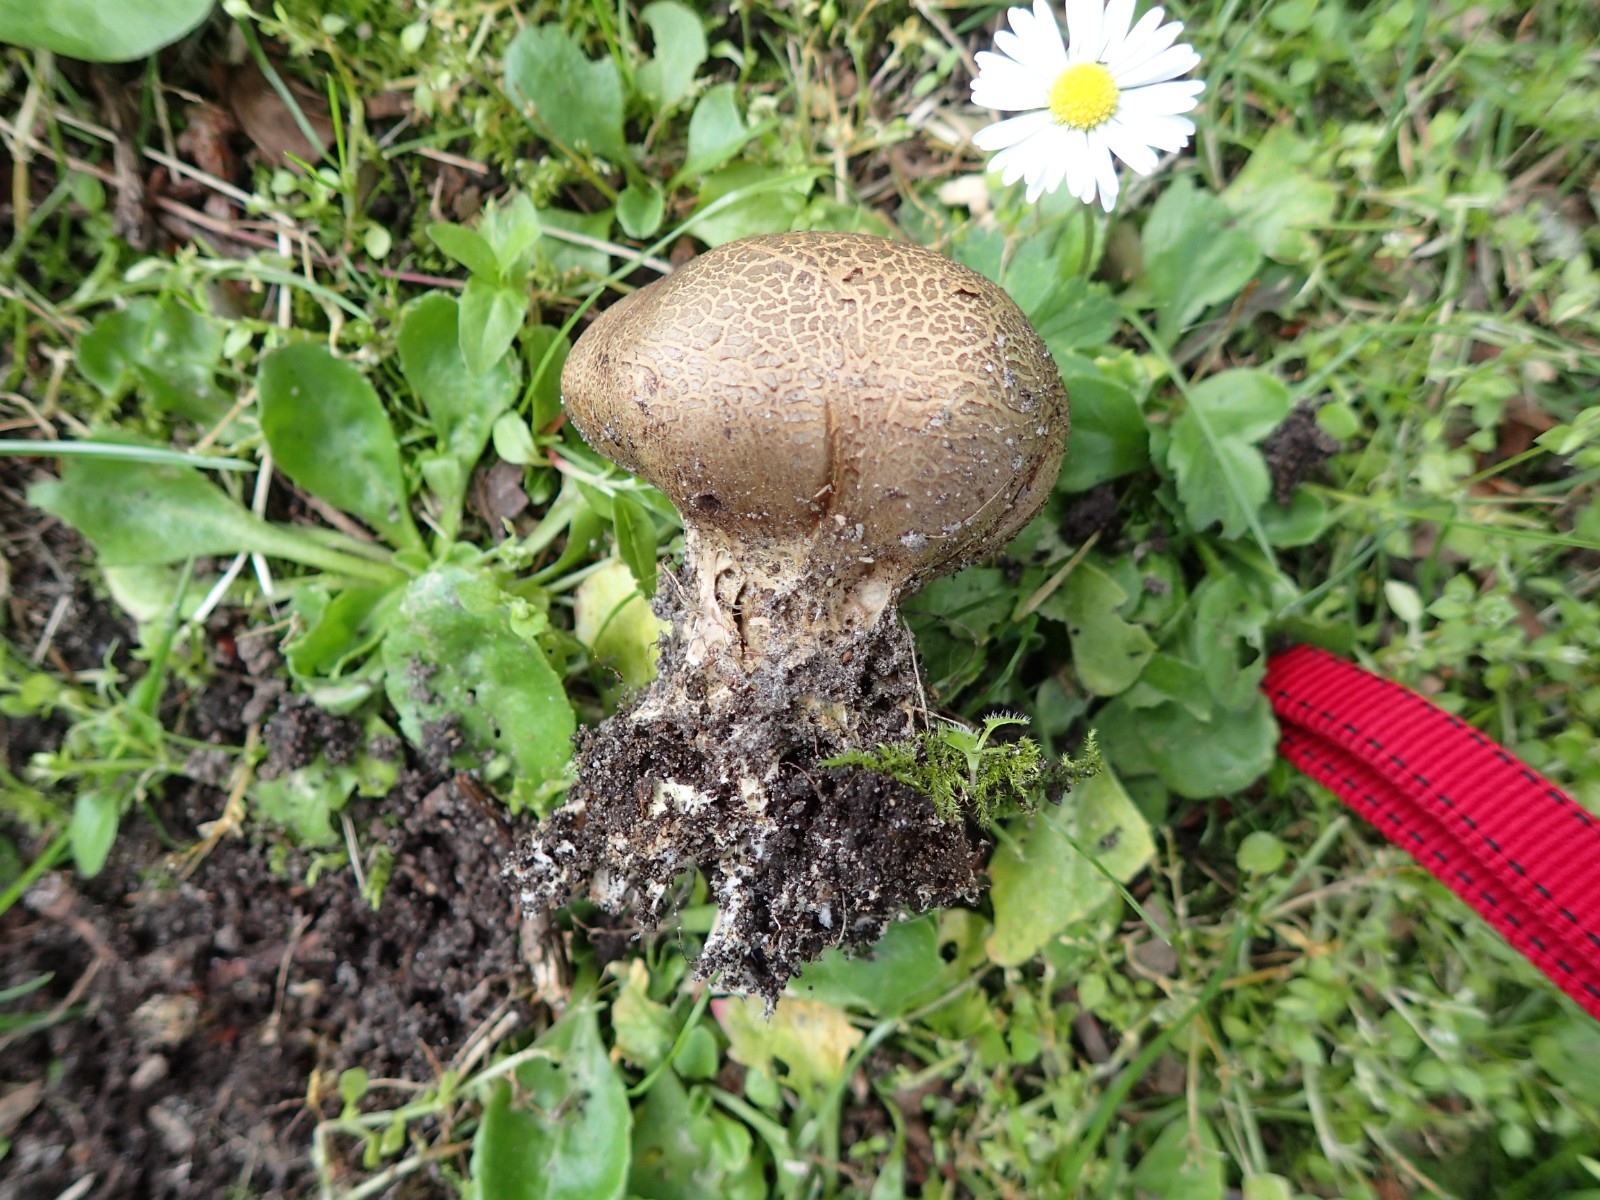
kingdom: Fungi
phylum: Basidiomycota
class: Agaricomycetes
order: Boletales
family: Sclerodermataceae
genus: Scleroderma
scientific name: Scleroderma verrucosum
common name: stilket bruskbold
